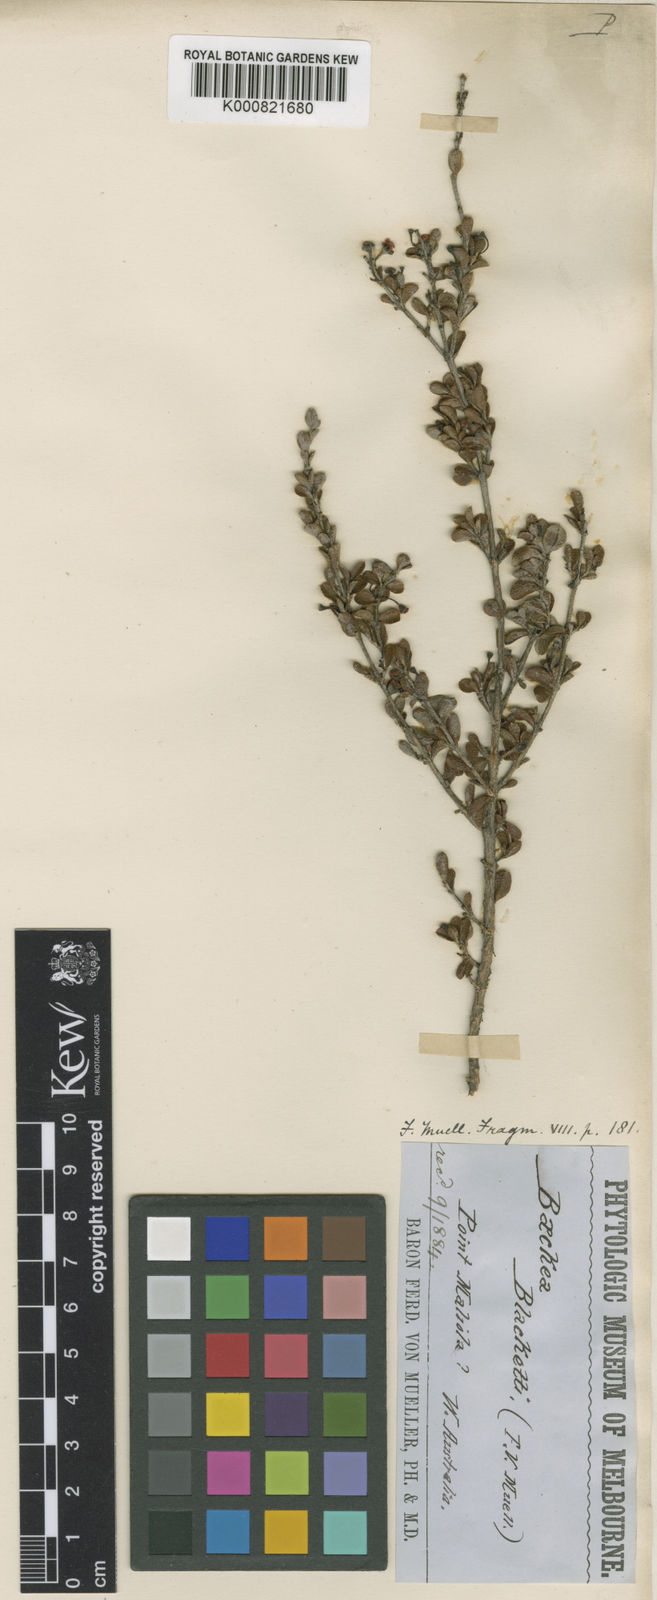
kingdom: Plantae
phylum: Tracheophyta
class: Magnoliopsida
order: Myrtales
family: Myrtaceae
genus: Cyathostemon
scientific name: Cyathostemon blackettii
